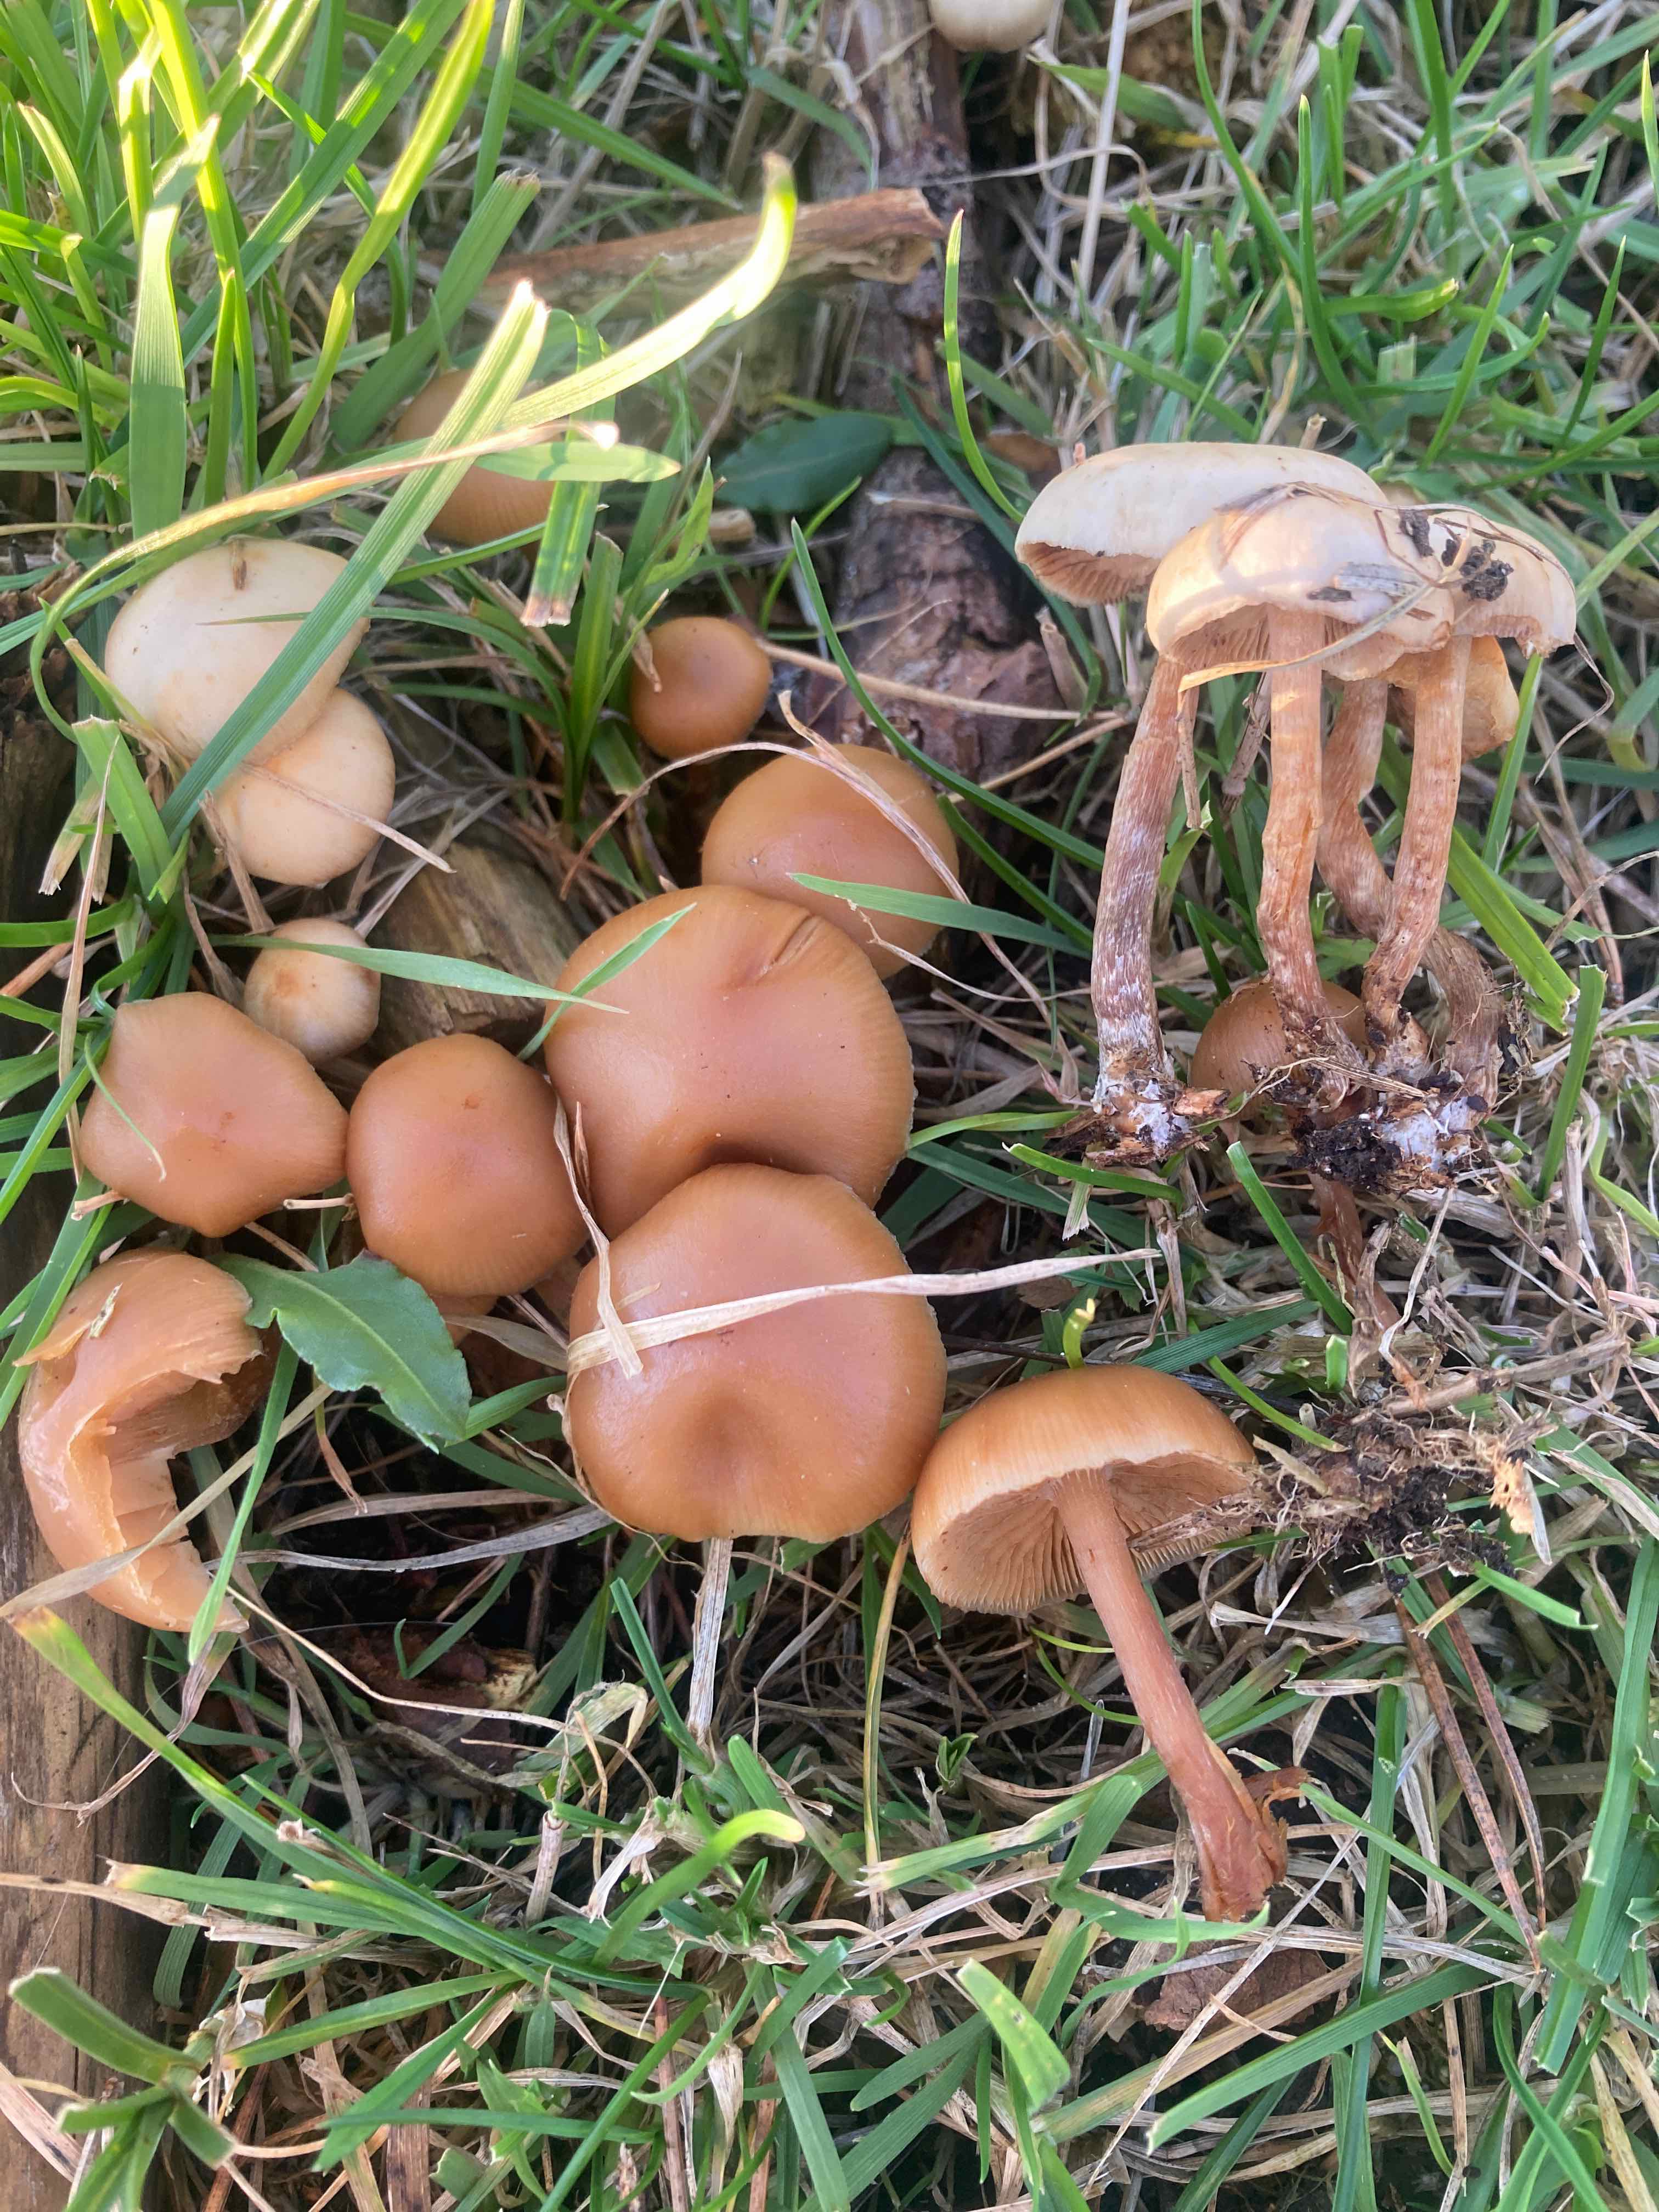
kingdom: Fungi
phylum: Basidiomycota
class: Agaricomycetes
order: Agaricales
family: Hymenogastraceae
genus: Galerina
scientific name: Galerina sideroides
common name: træflis-hjelmhat
